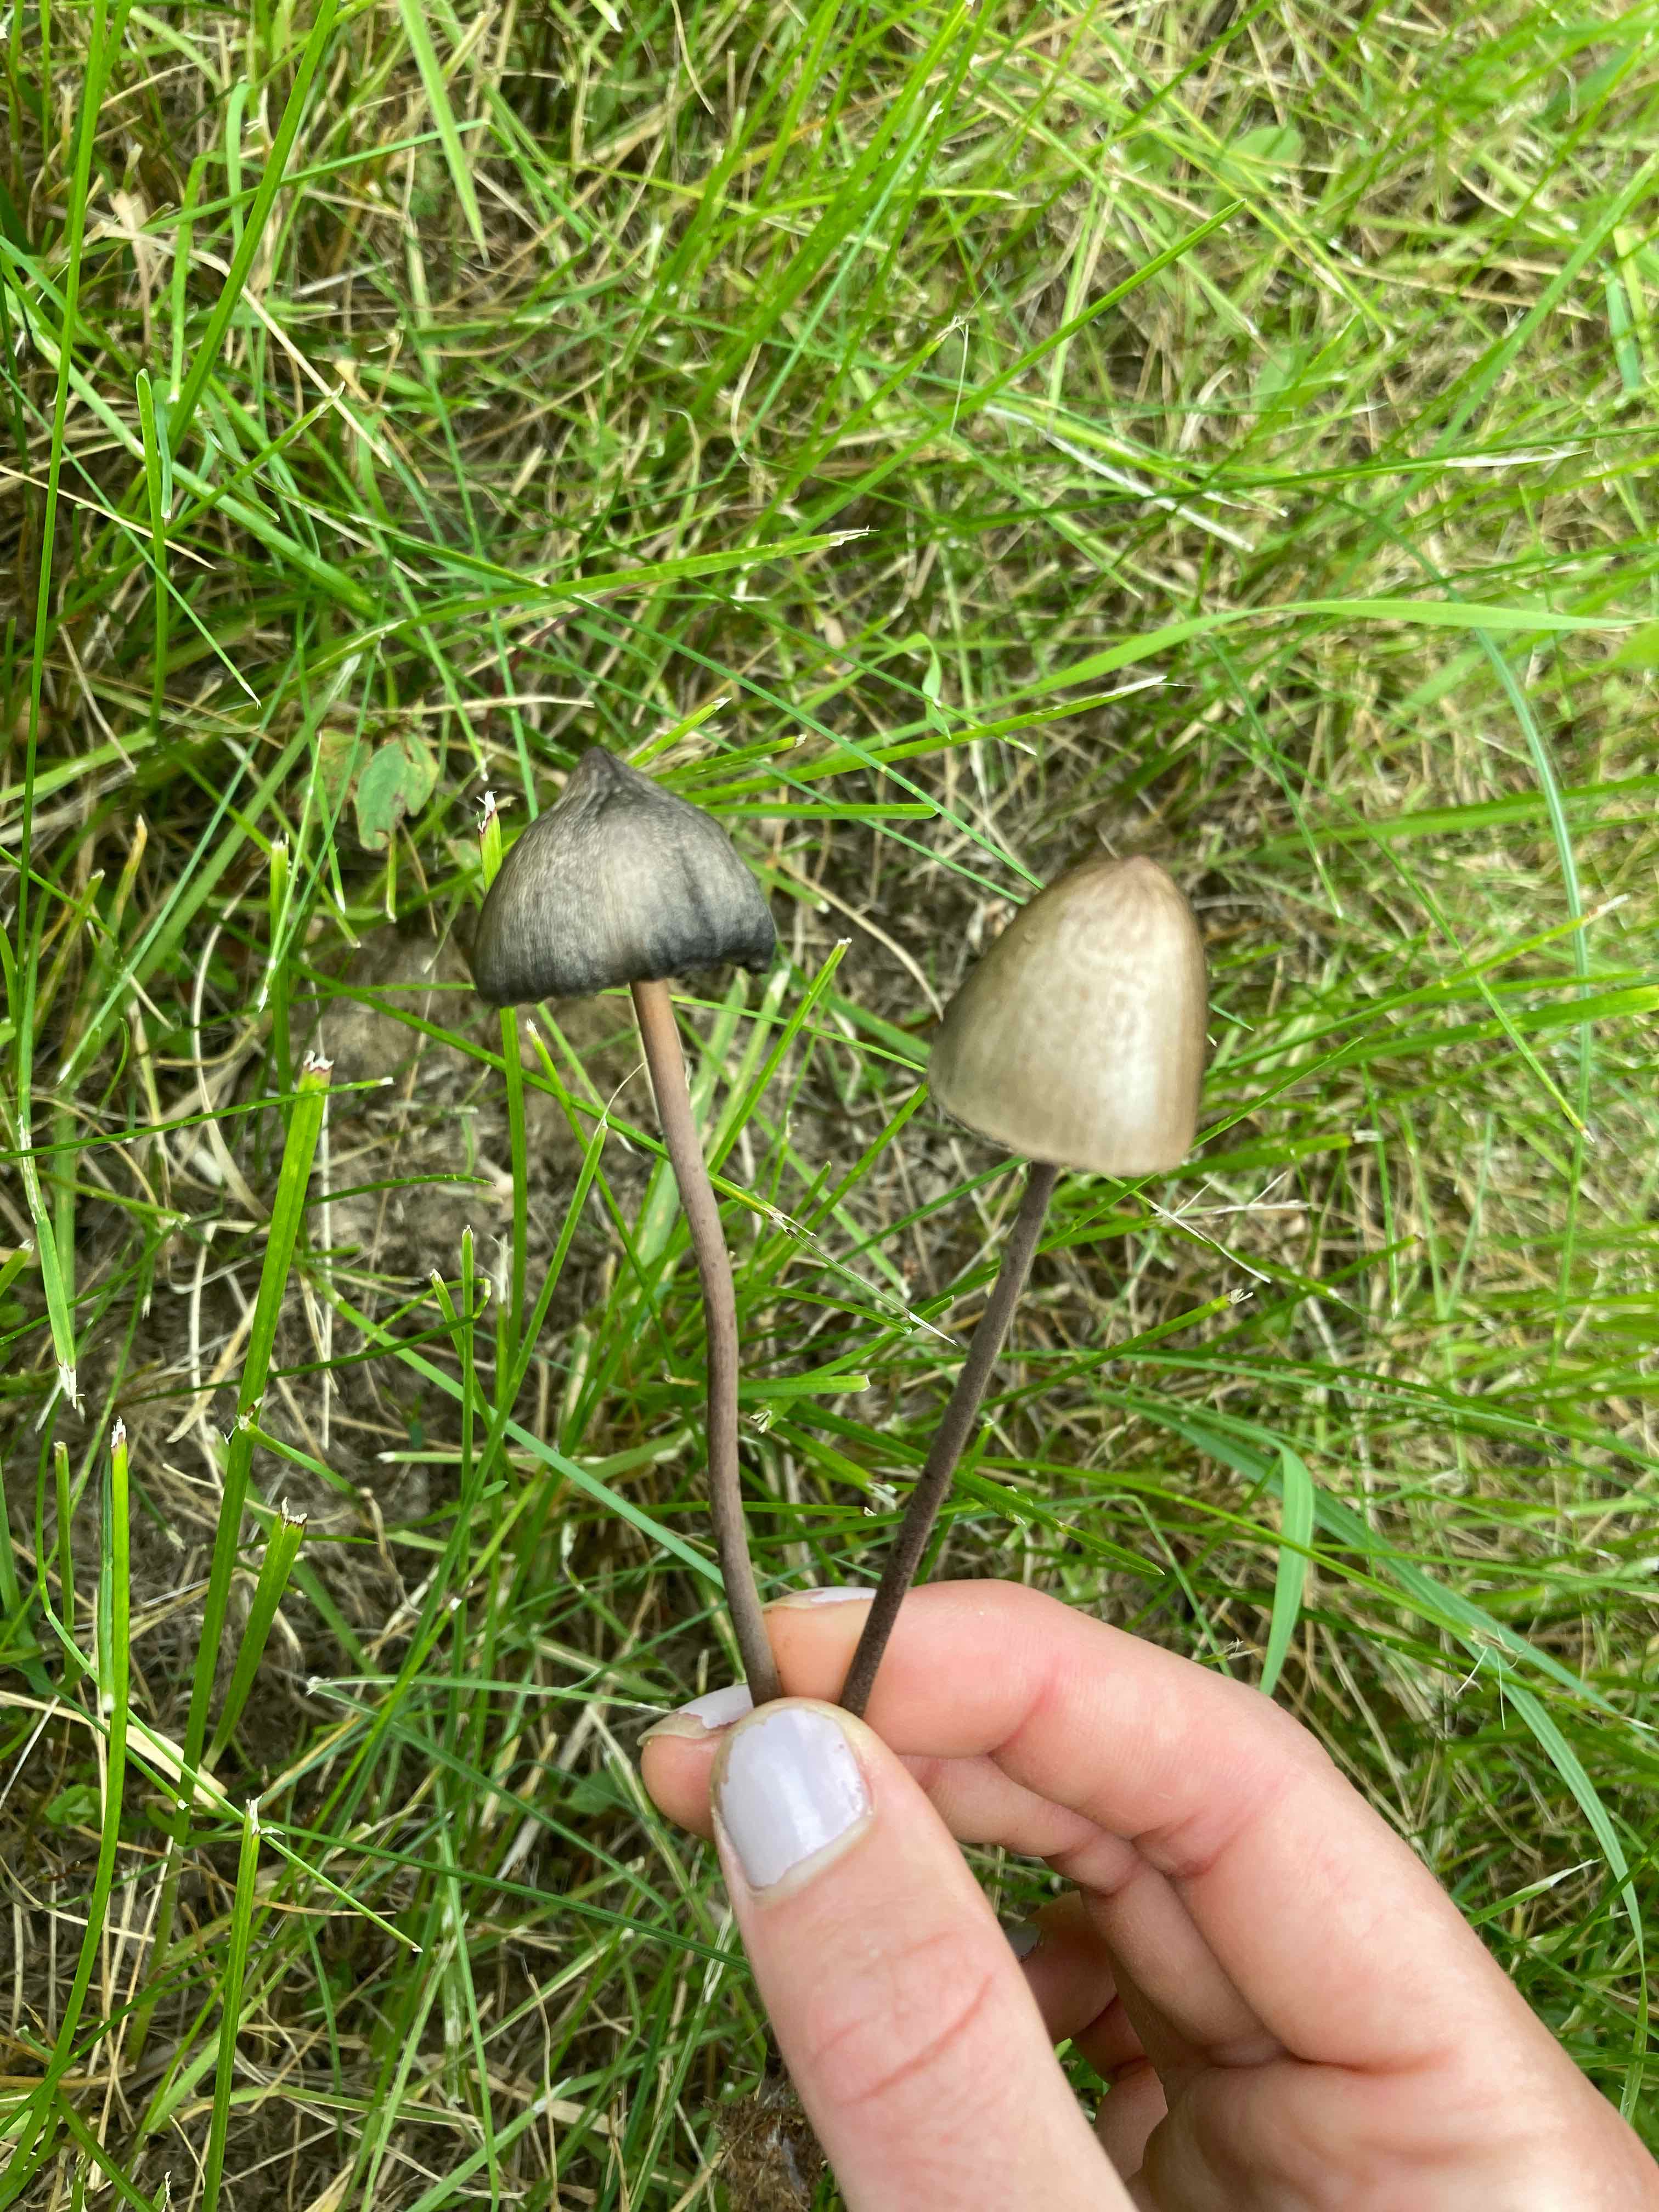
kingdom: Fungi
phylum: Basidiomycota
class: Agaricomycetes
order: Agaricales
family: Bolbitiaceae
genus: Panaeolus
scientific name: Panaeolus
